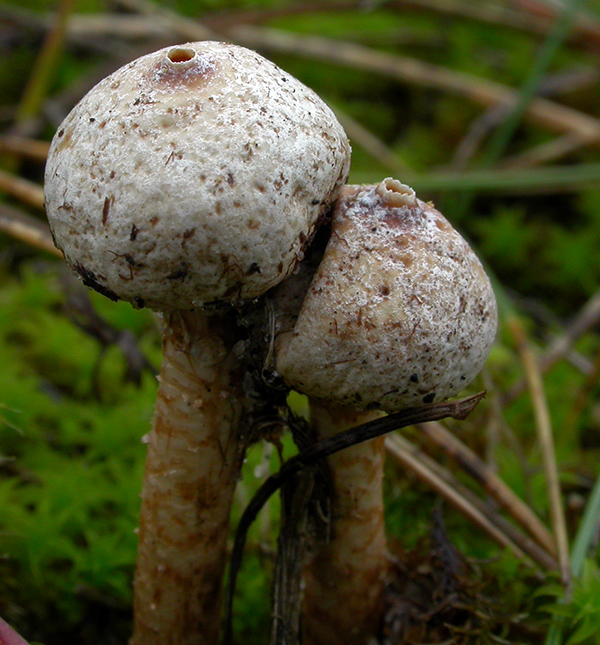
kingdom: Fungi
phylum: Basidiomycota
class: Agaricomycetes
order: Agaricales
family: Agaricaceae
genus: Tulostoma
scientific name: Tulostoma brumale
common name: vinter-stilkbovist
